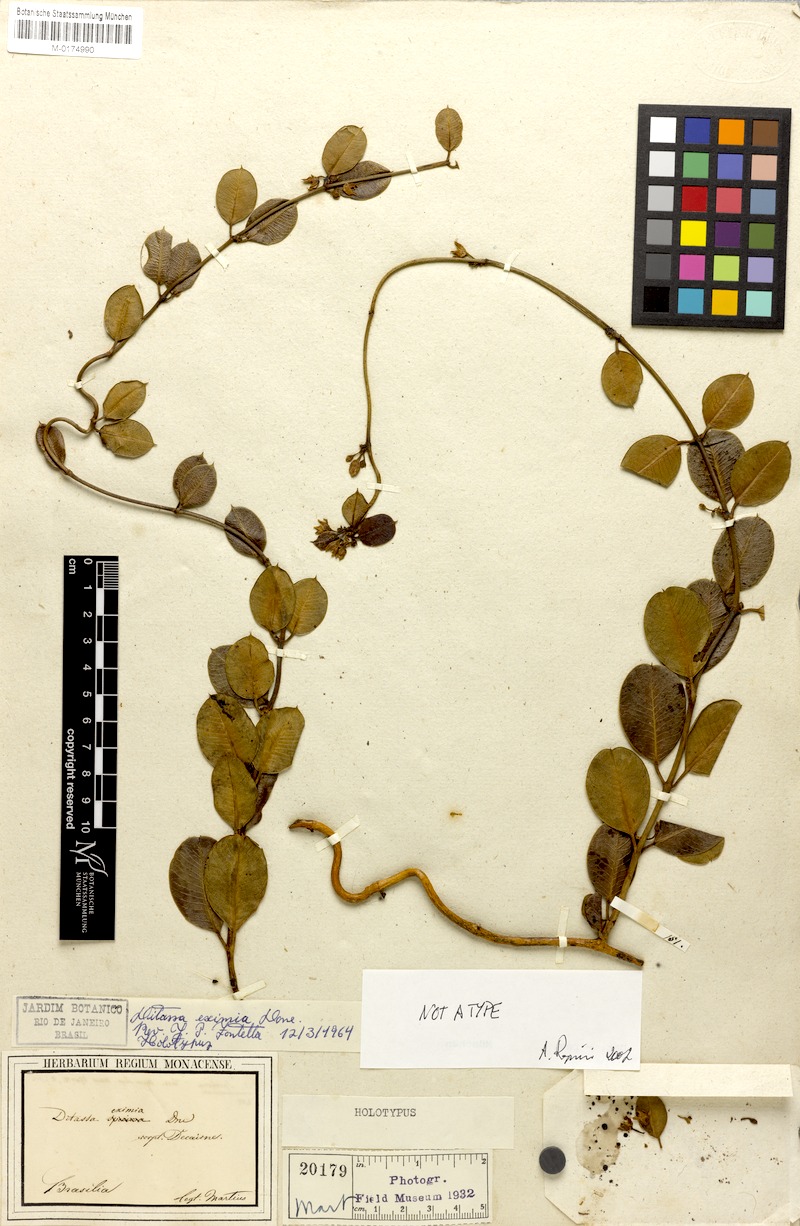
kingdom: Plantae
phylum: Tracheophyta
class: Magnoliopsida
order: Gentianales
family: Apocynaceae
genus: Ditassa
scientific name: Ditassa eximia
